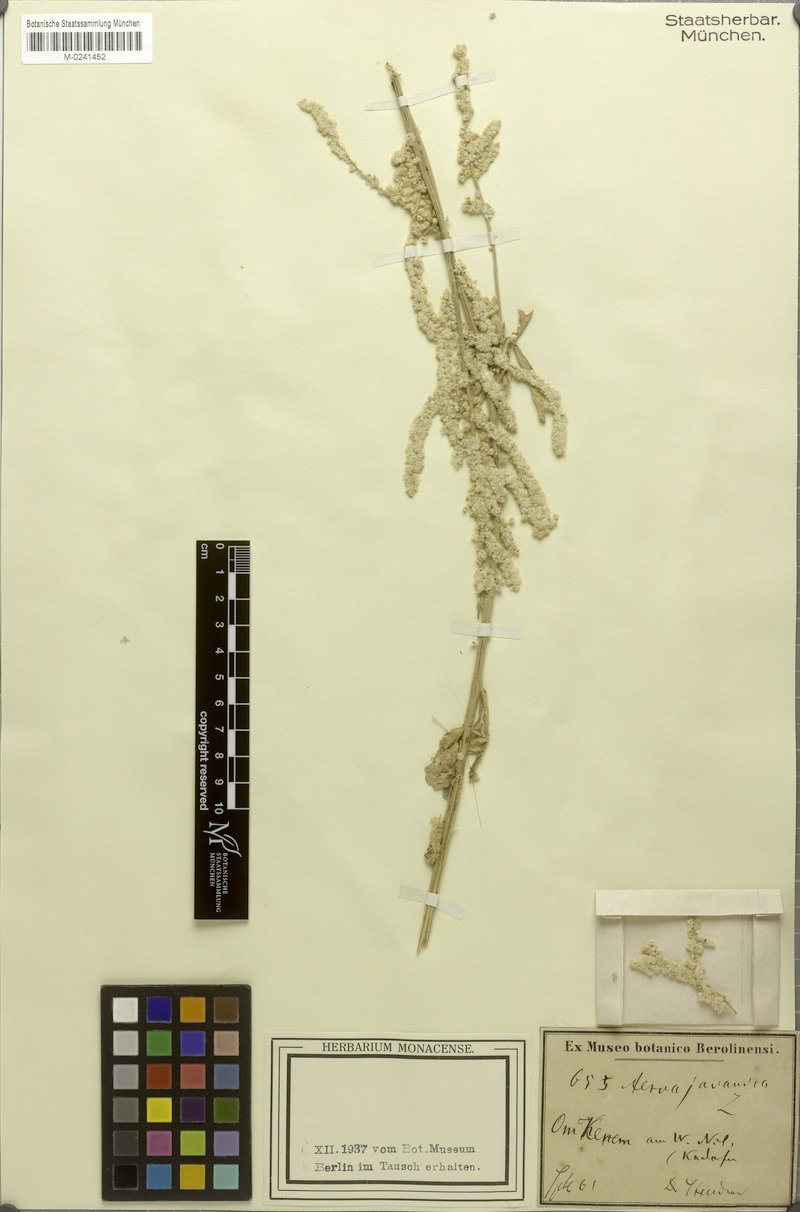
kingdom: Plantae
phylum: Tracheophyta
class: Magnoliopsida
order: Caryophyllales
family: Amaranthaceae
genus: Aerva
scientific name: Aerva javanica
